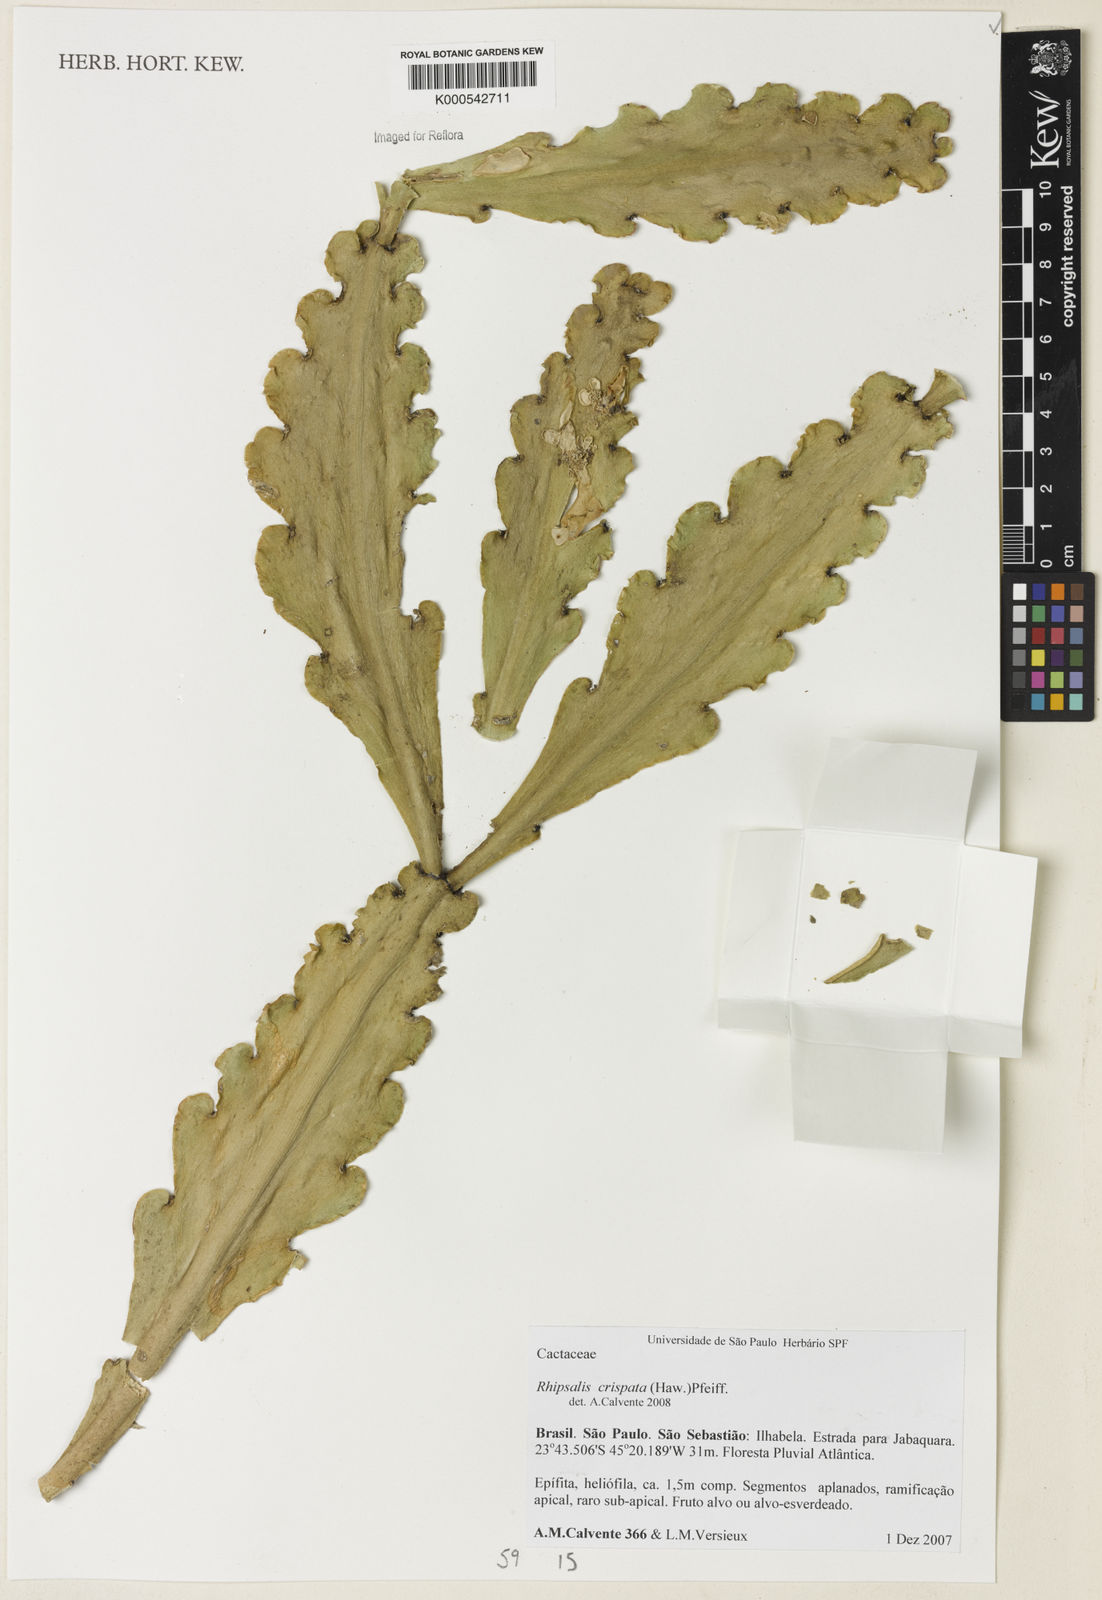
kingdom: Plantae
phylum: Tracheophyta
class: Magnoliopsida
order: Caryophyllales
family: Cactaceae
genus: Rhipsalis
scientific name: Rhipsalis crispata
